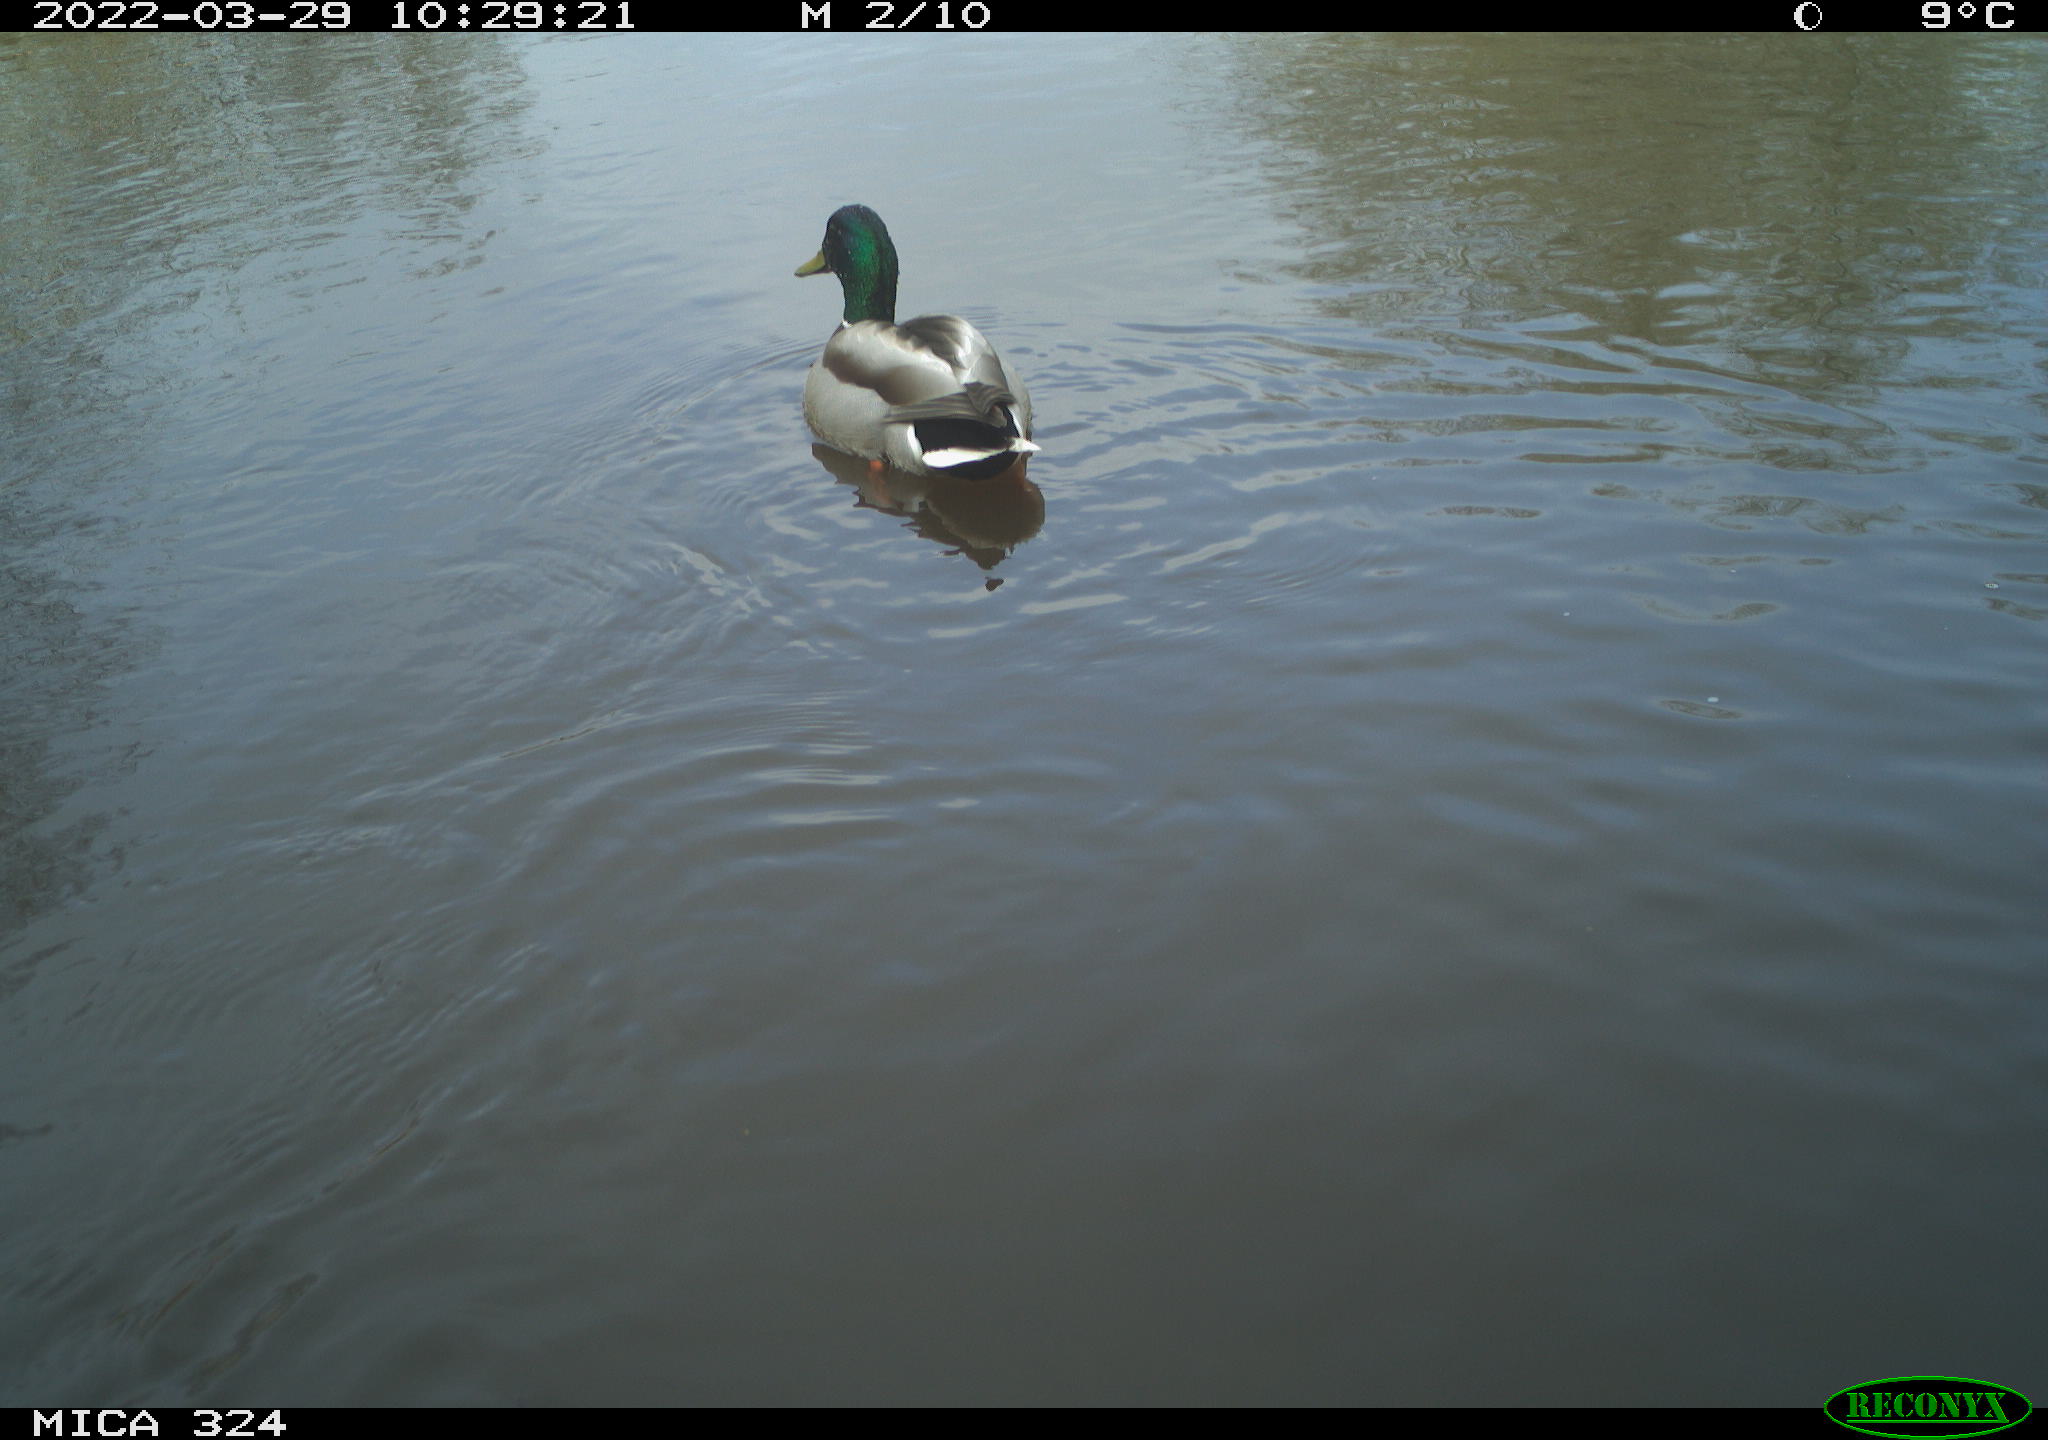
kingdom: Animalia
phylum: Chordata
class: Aves
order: Anseriformes
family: Anatidae
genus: Anas
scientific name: Anas platyrhynchos
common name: Mallard
